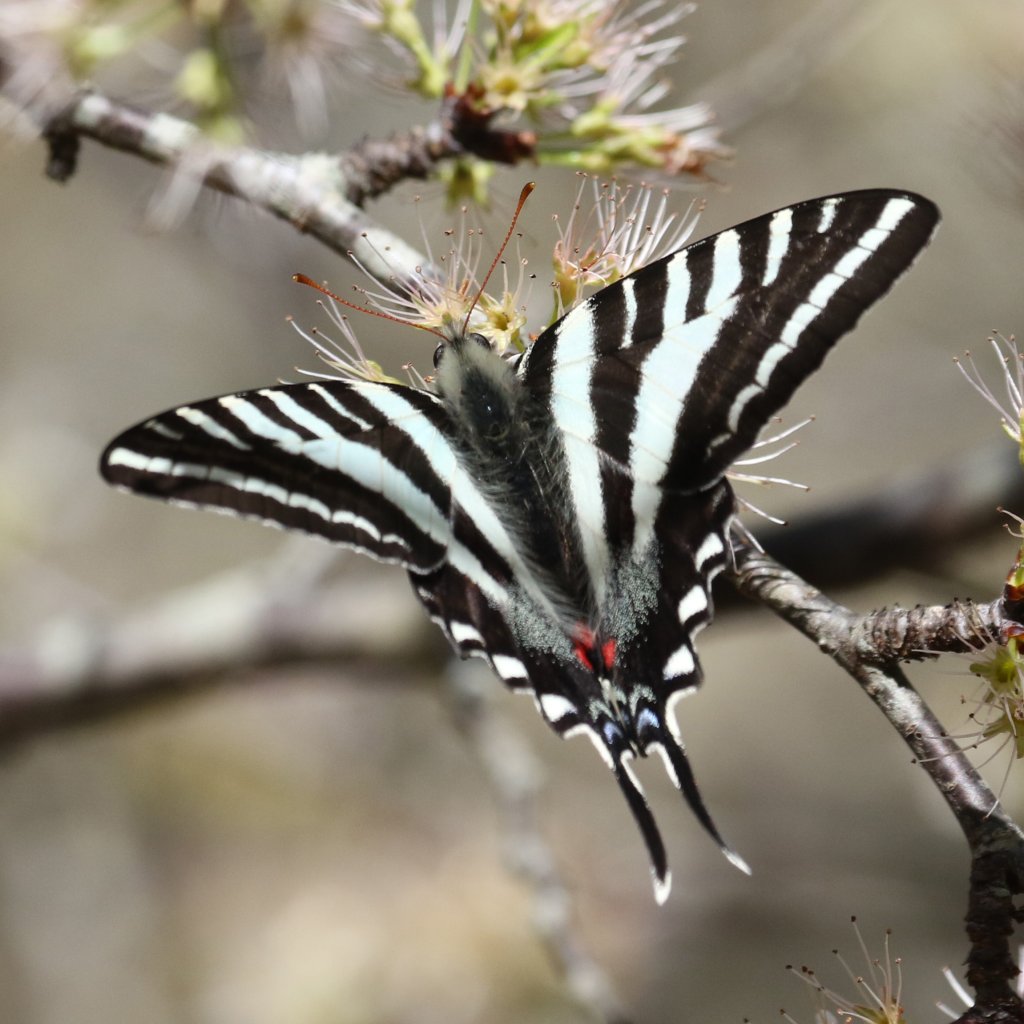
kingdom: Animalia
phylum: Arthropoda
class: Insecta
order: Lepidoptera
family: Papilionidae
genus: Protographium
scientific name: Protographium marcellus
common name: Zebra Swallowtail
